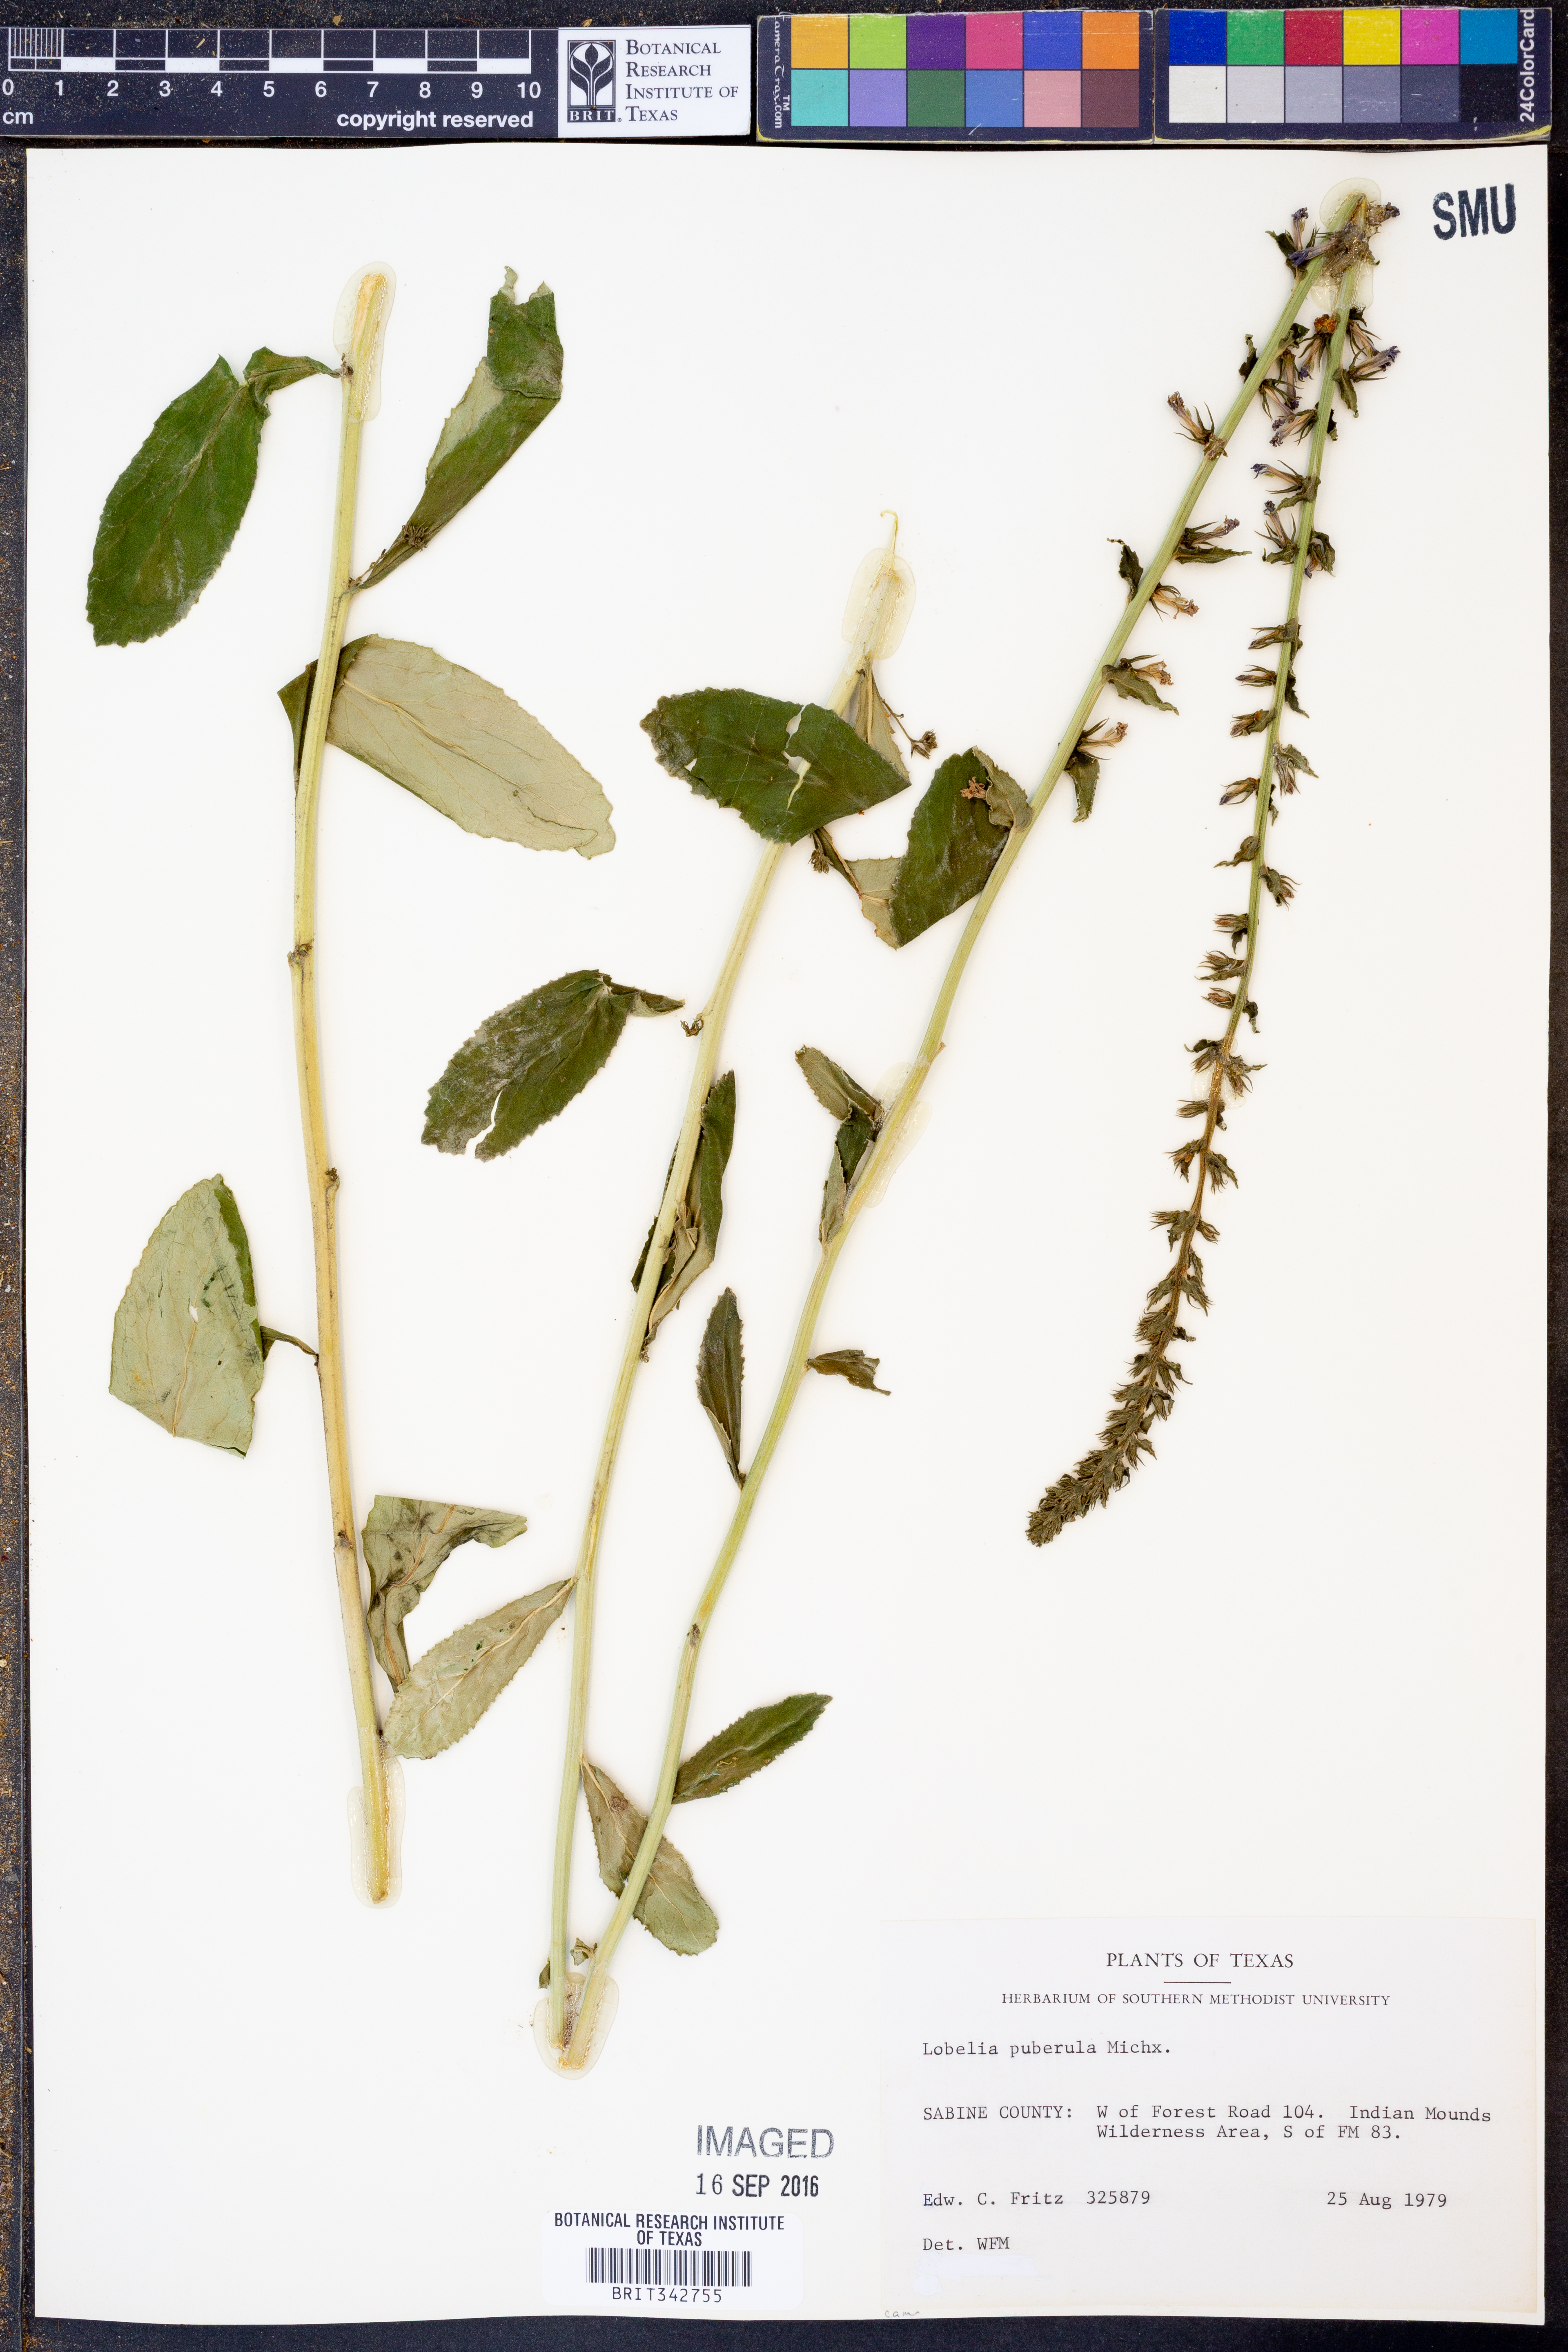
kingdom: Plantae
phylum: Tracheophyta
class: Magnoliopsida
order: Asterales
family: Campanulaceae
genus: Lobelia
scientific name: Lobelia puberula
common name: Purple dewdrop
